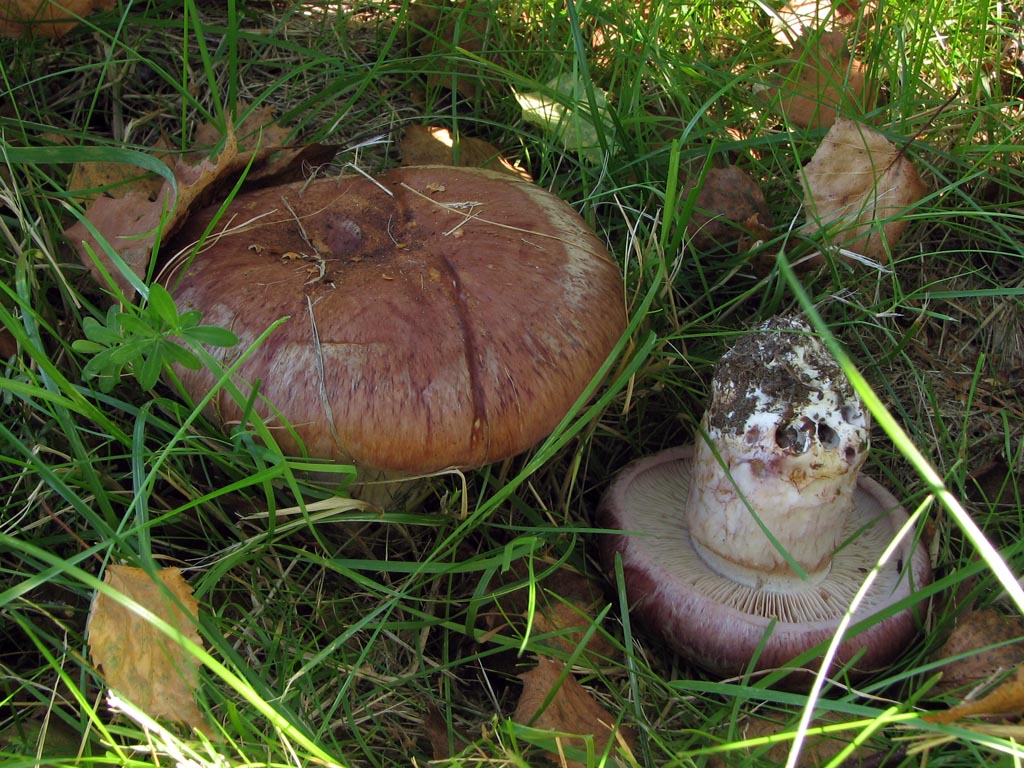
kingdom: Fungi
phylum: Basidiomycota
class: Agaricomycetes
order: Agaricales
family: Cortinariaceae
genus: Phlegmacium
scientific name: Phlegmacium balteatocumatile
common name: violettrådet slørhat
